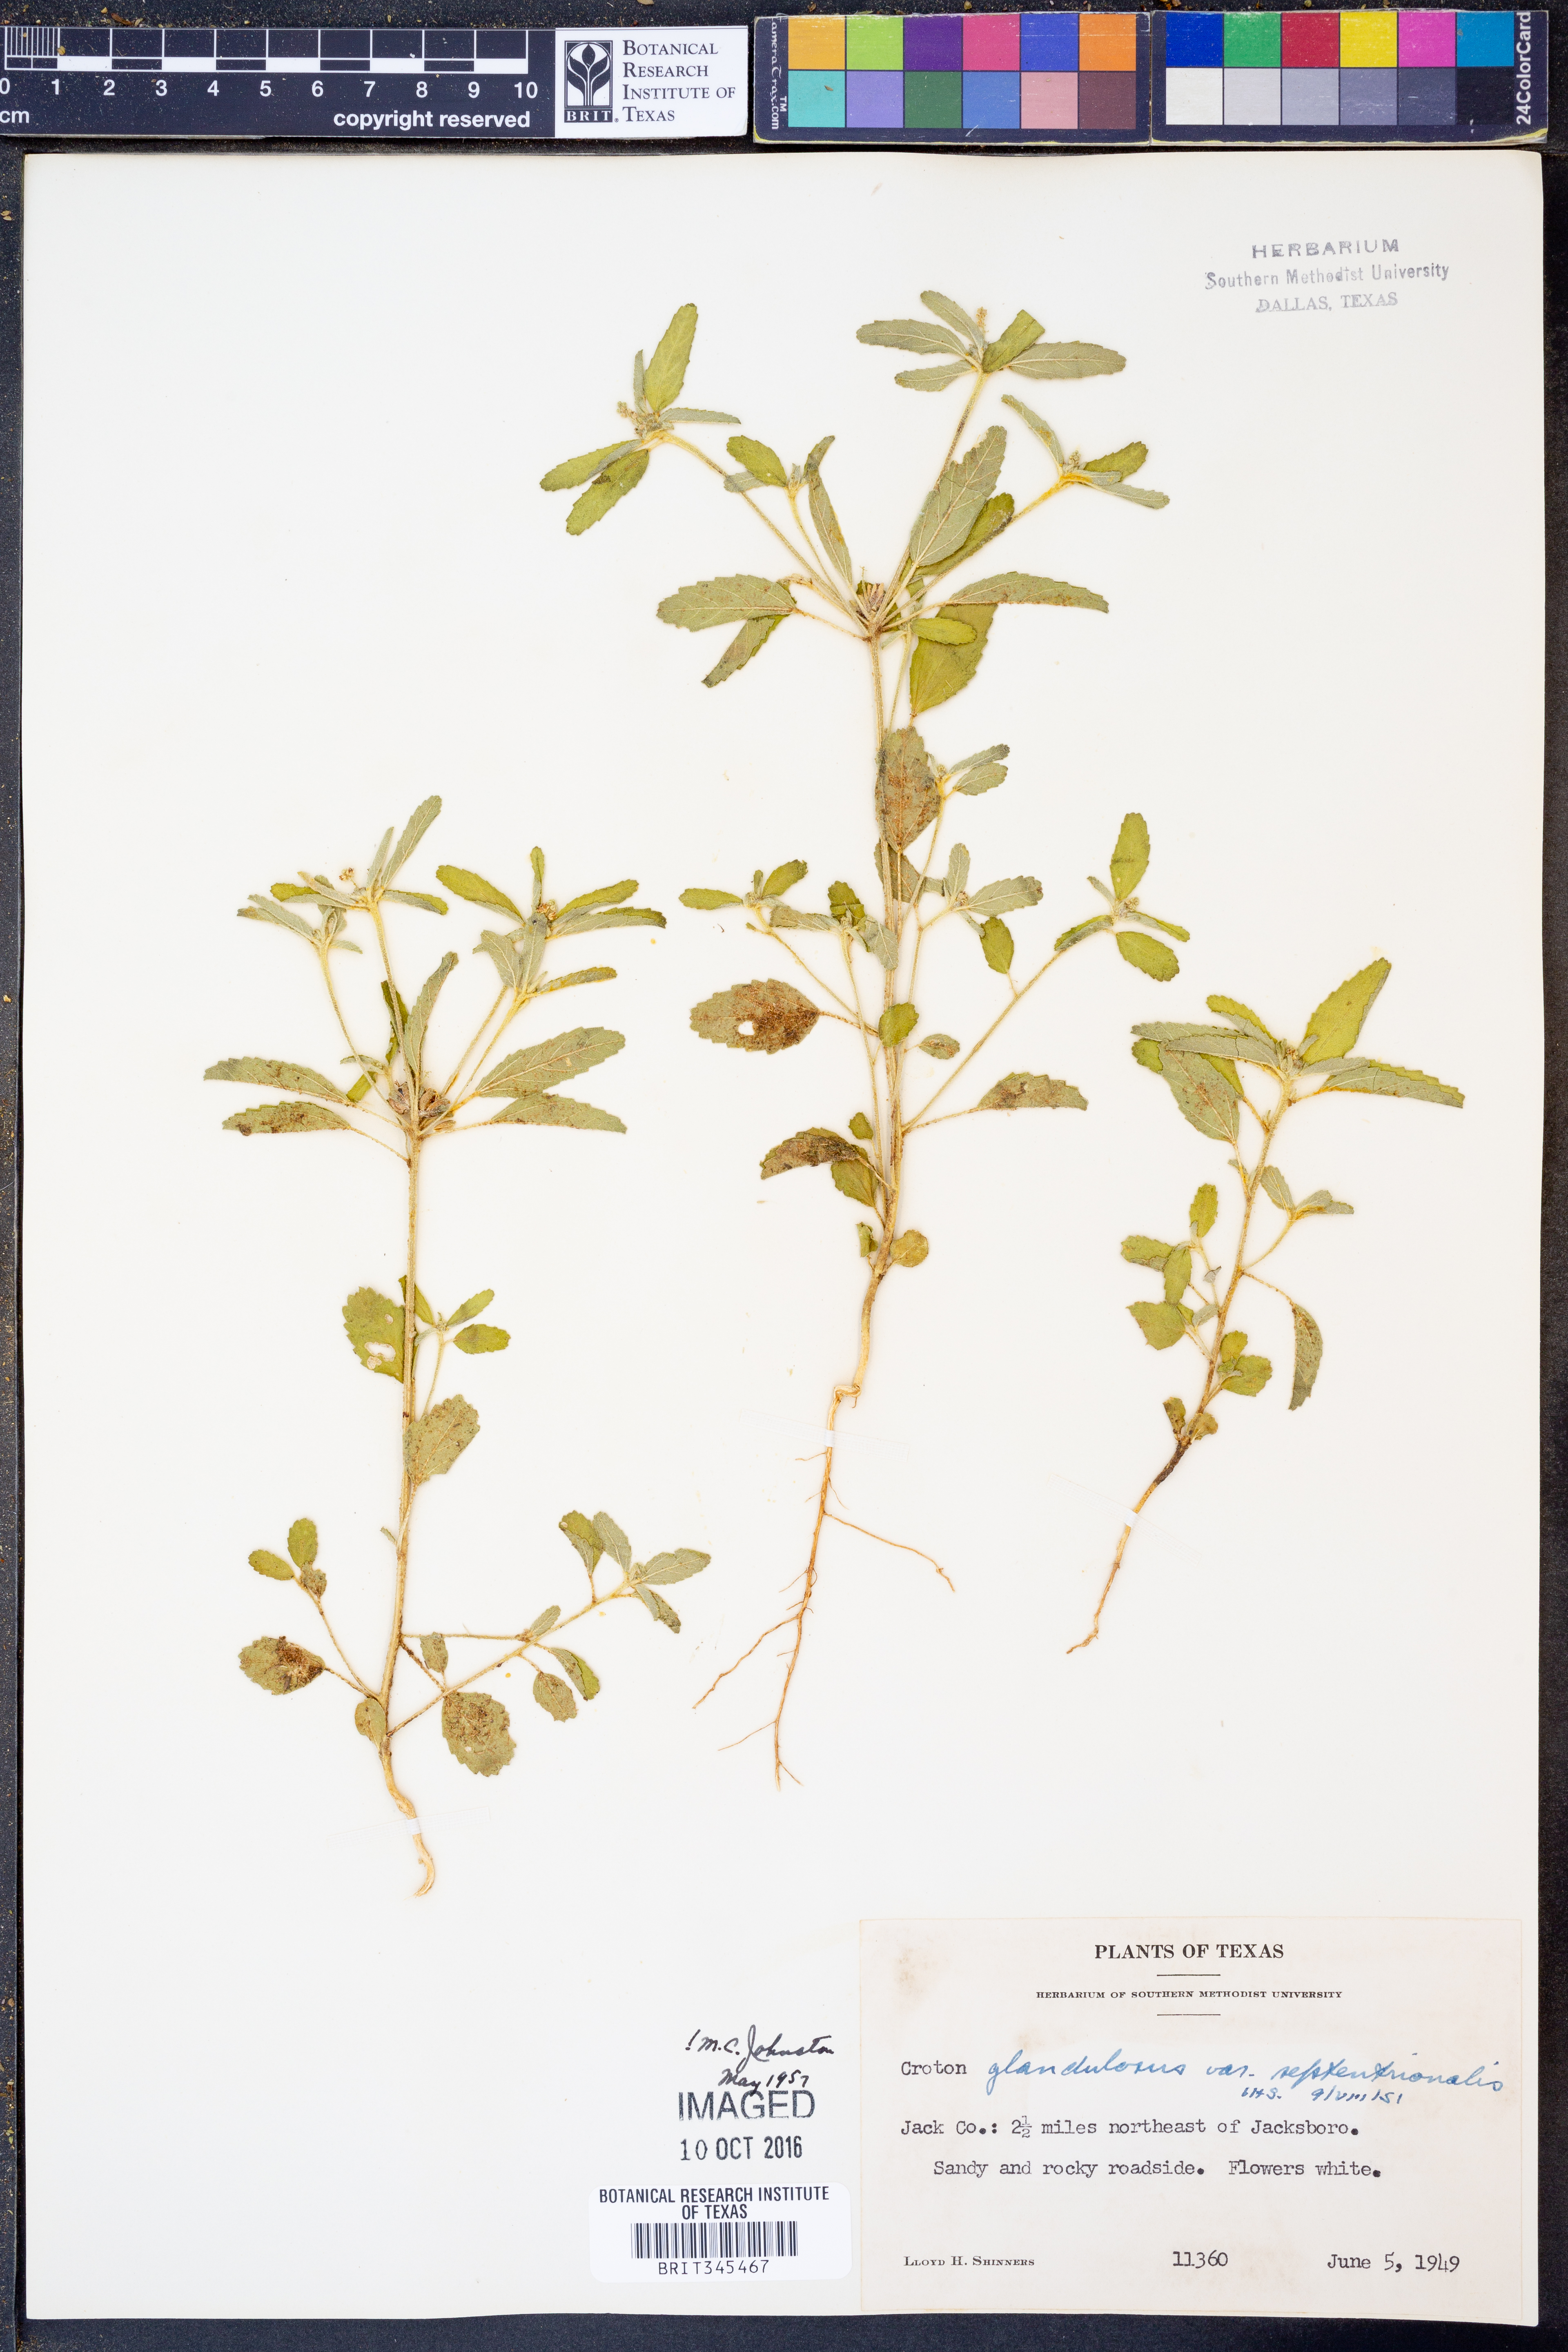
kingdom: Plantae
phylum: Tracheophyta
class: Magnoliopsida
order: Malpighiales
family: Euphorbiaceae
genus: Croton
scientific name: Croton glandulosus
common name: Tropic croton
